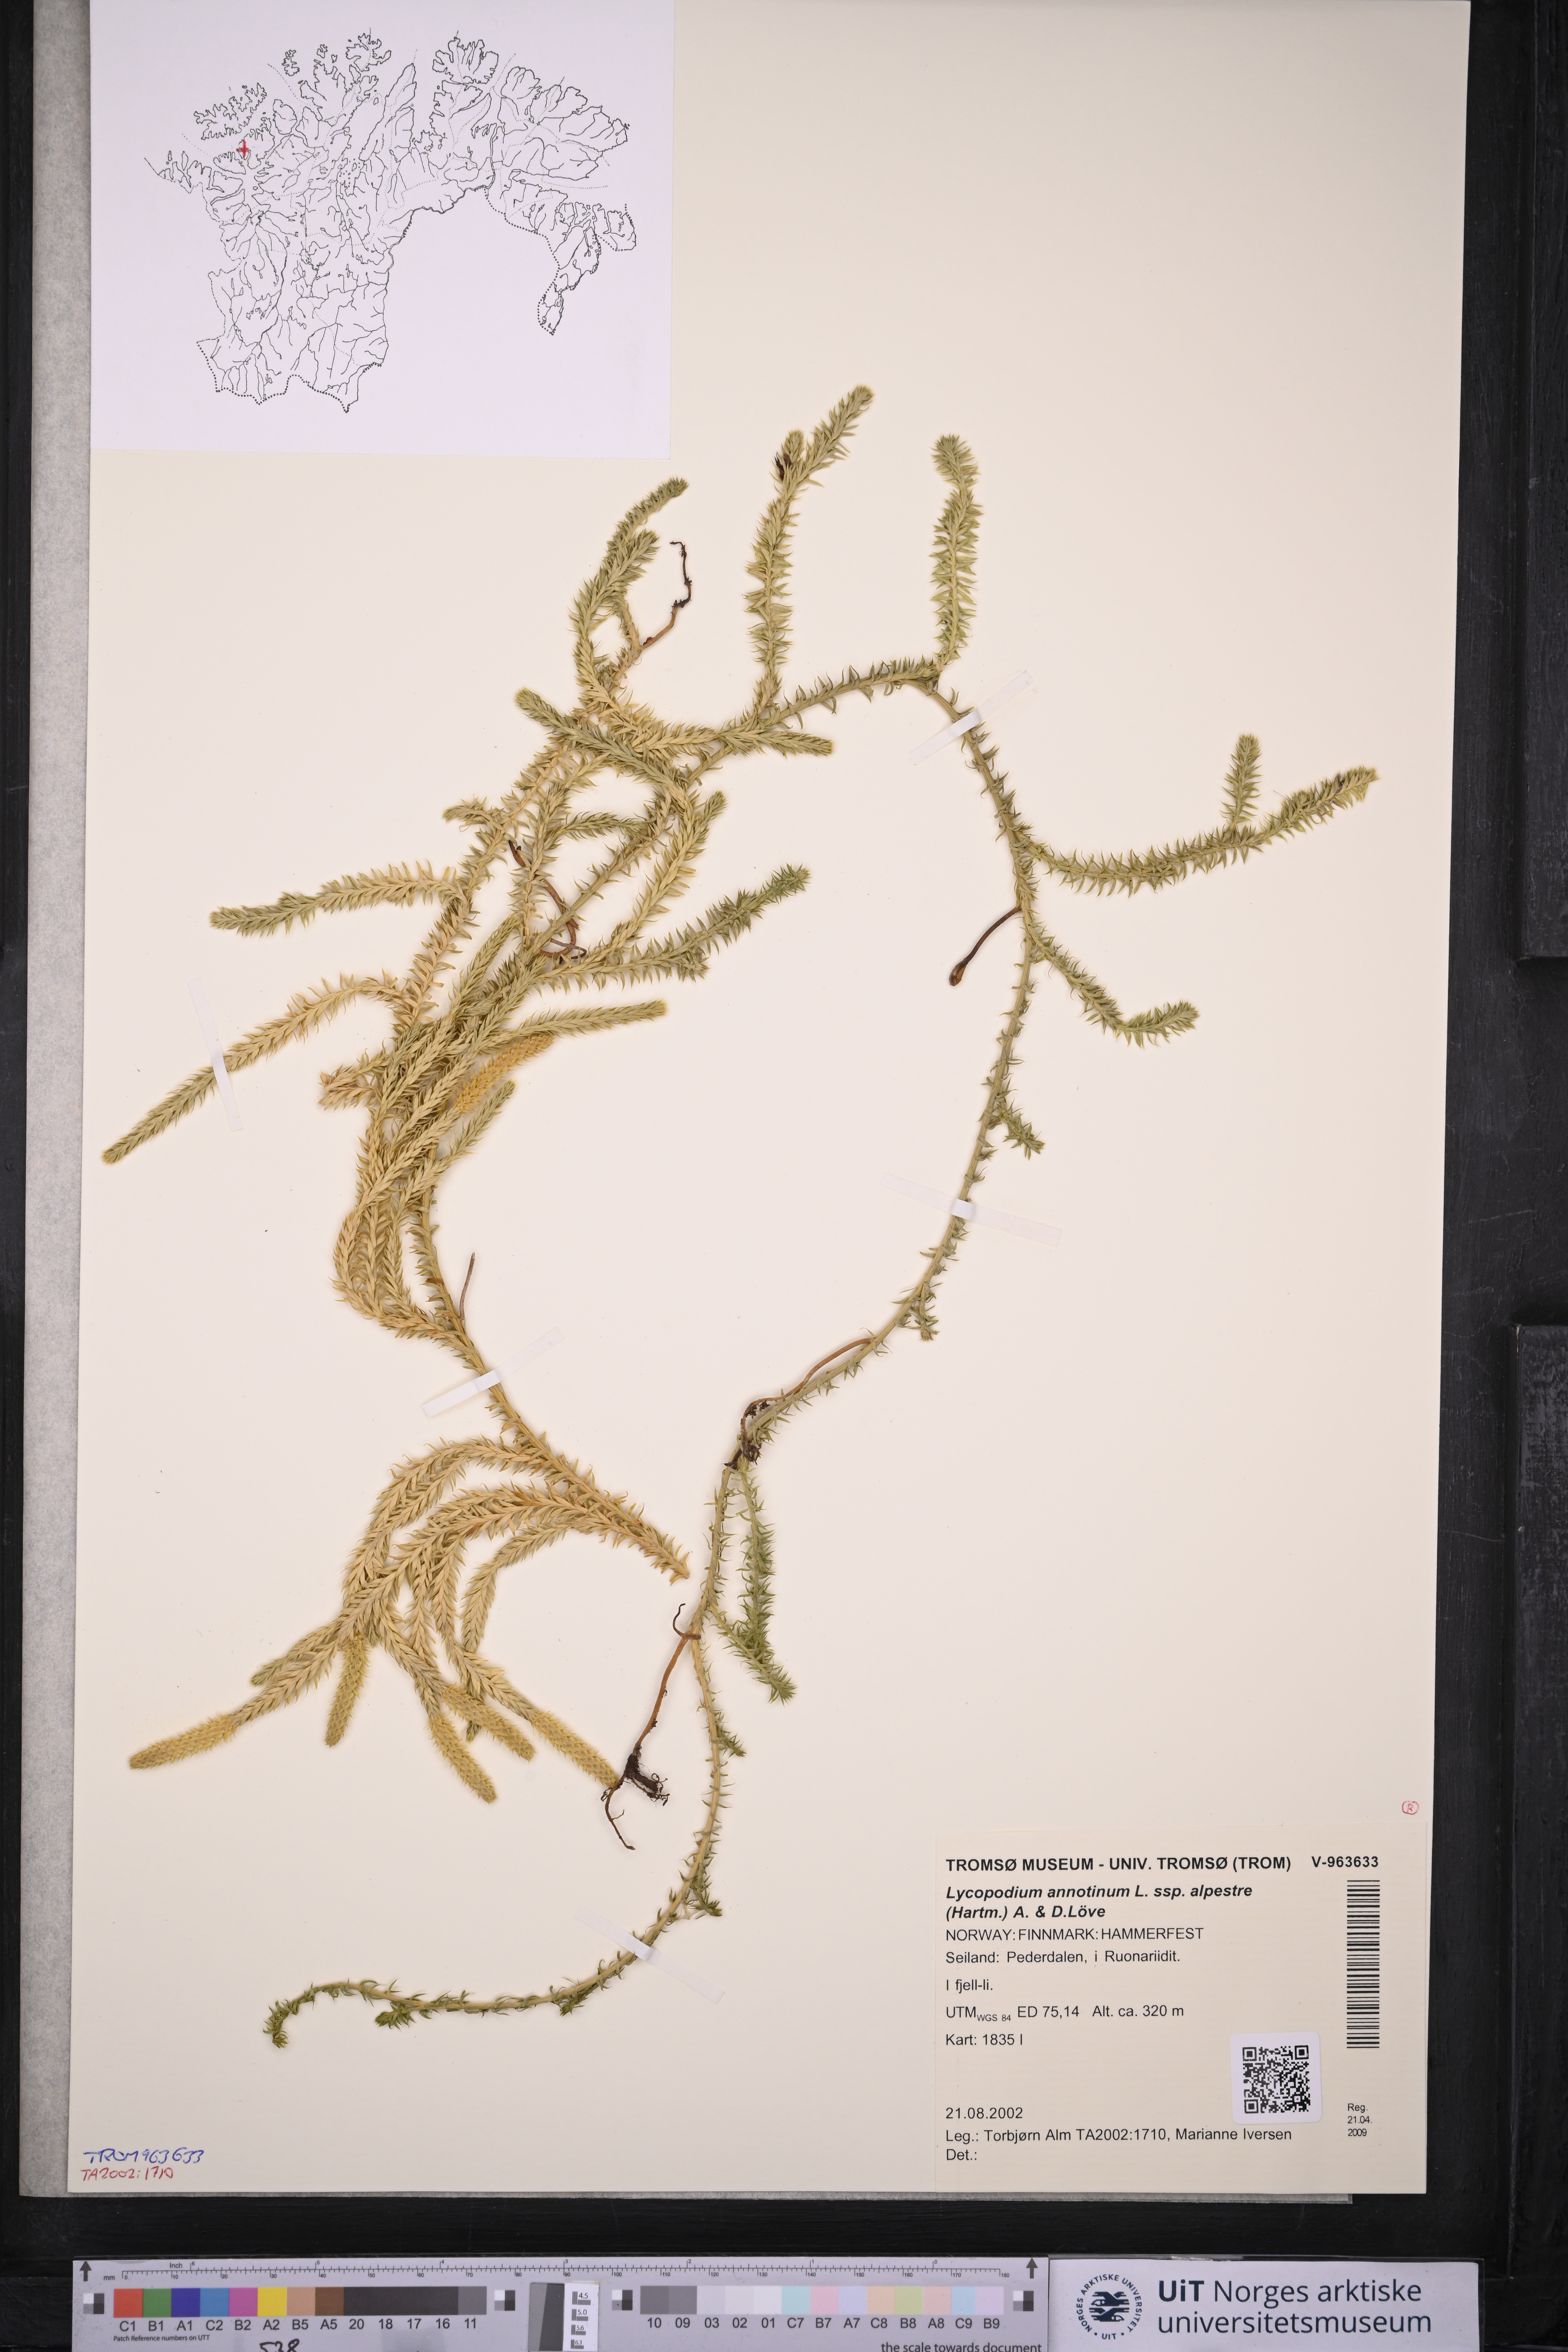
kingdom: Plantae
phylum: Tracheophyta
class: Lycopodiopsida
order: Lycopodiales
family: Lycopodiaceae
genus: Spinulum
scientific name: Spinulum annotinum
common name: Interrupted club-moss
